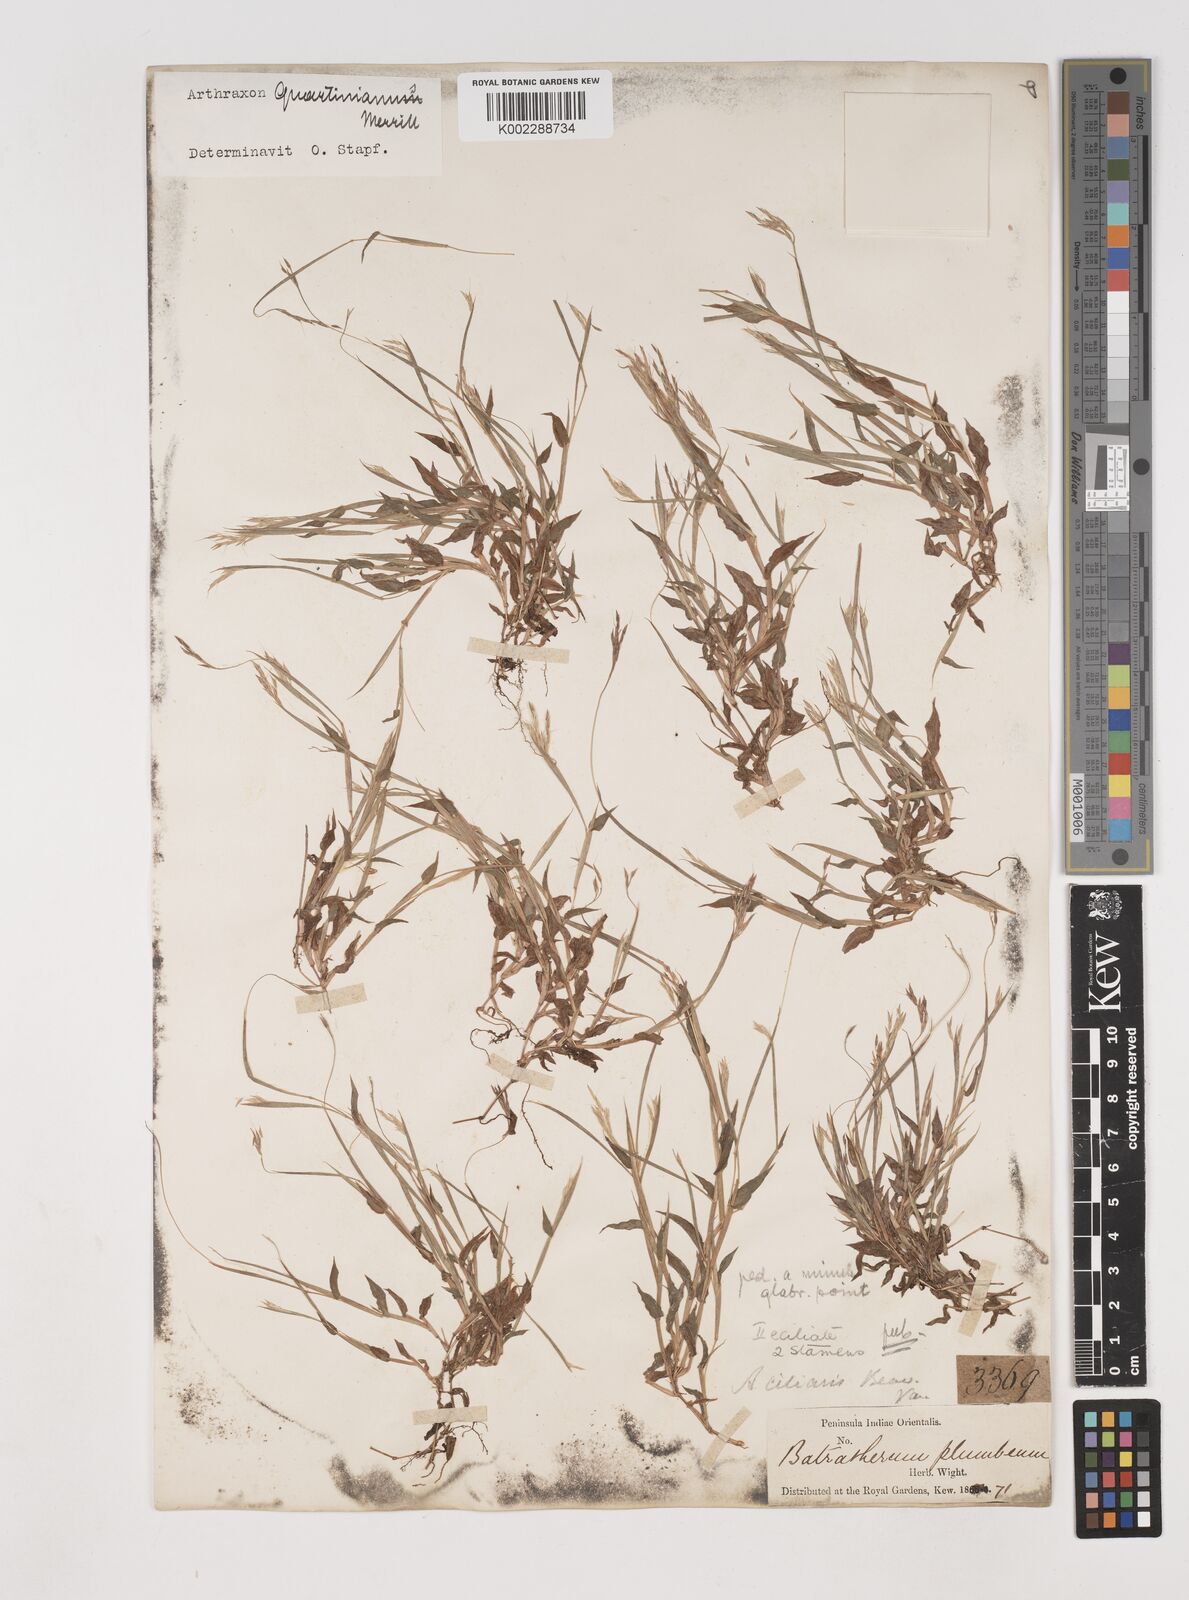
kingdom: Plantae
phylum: Tracheophyta
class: Liliopsida
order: Poales
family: Poaceae
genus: Arthraxon
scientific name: Arthraxon hispidus
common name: Small carpgrass
